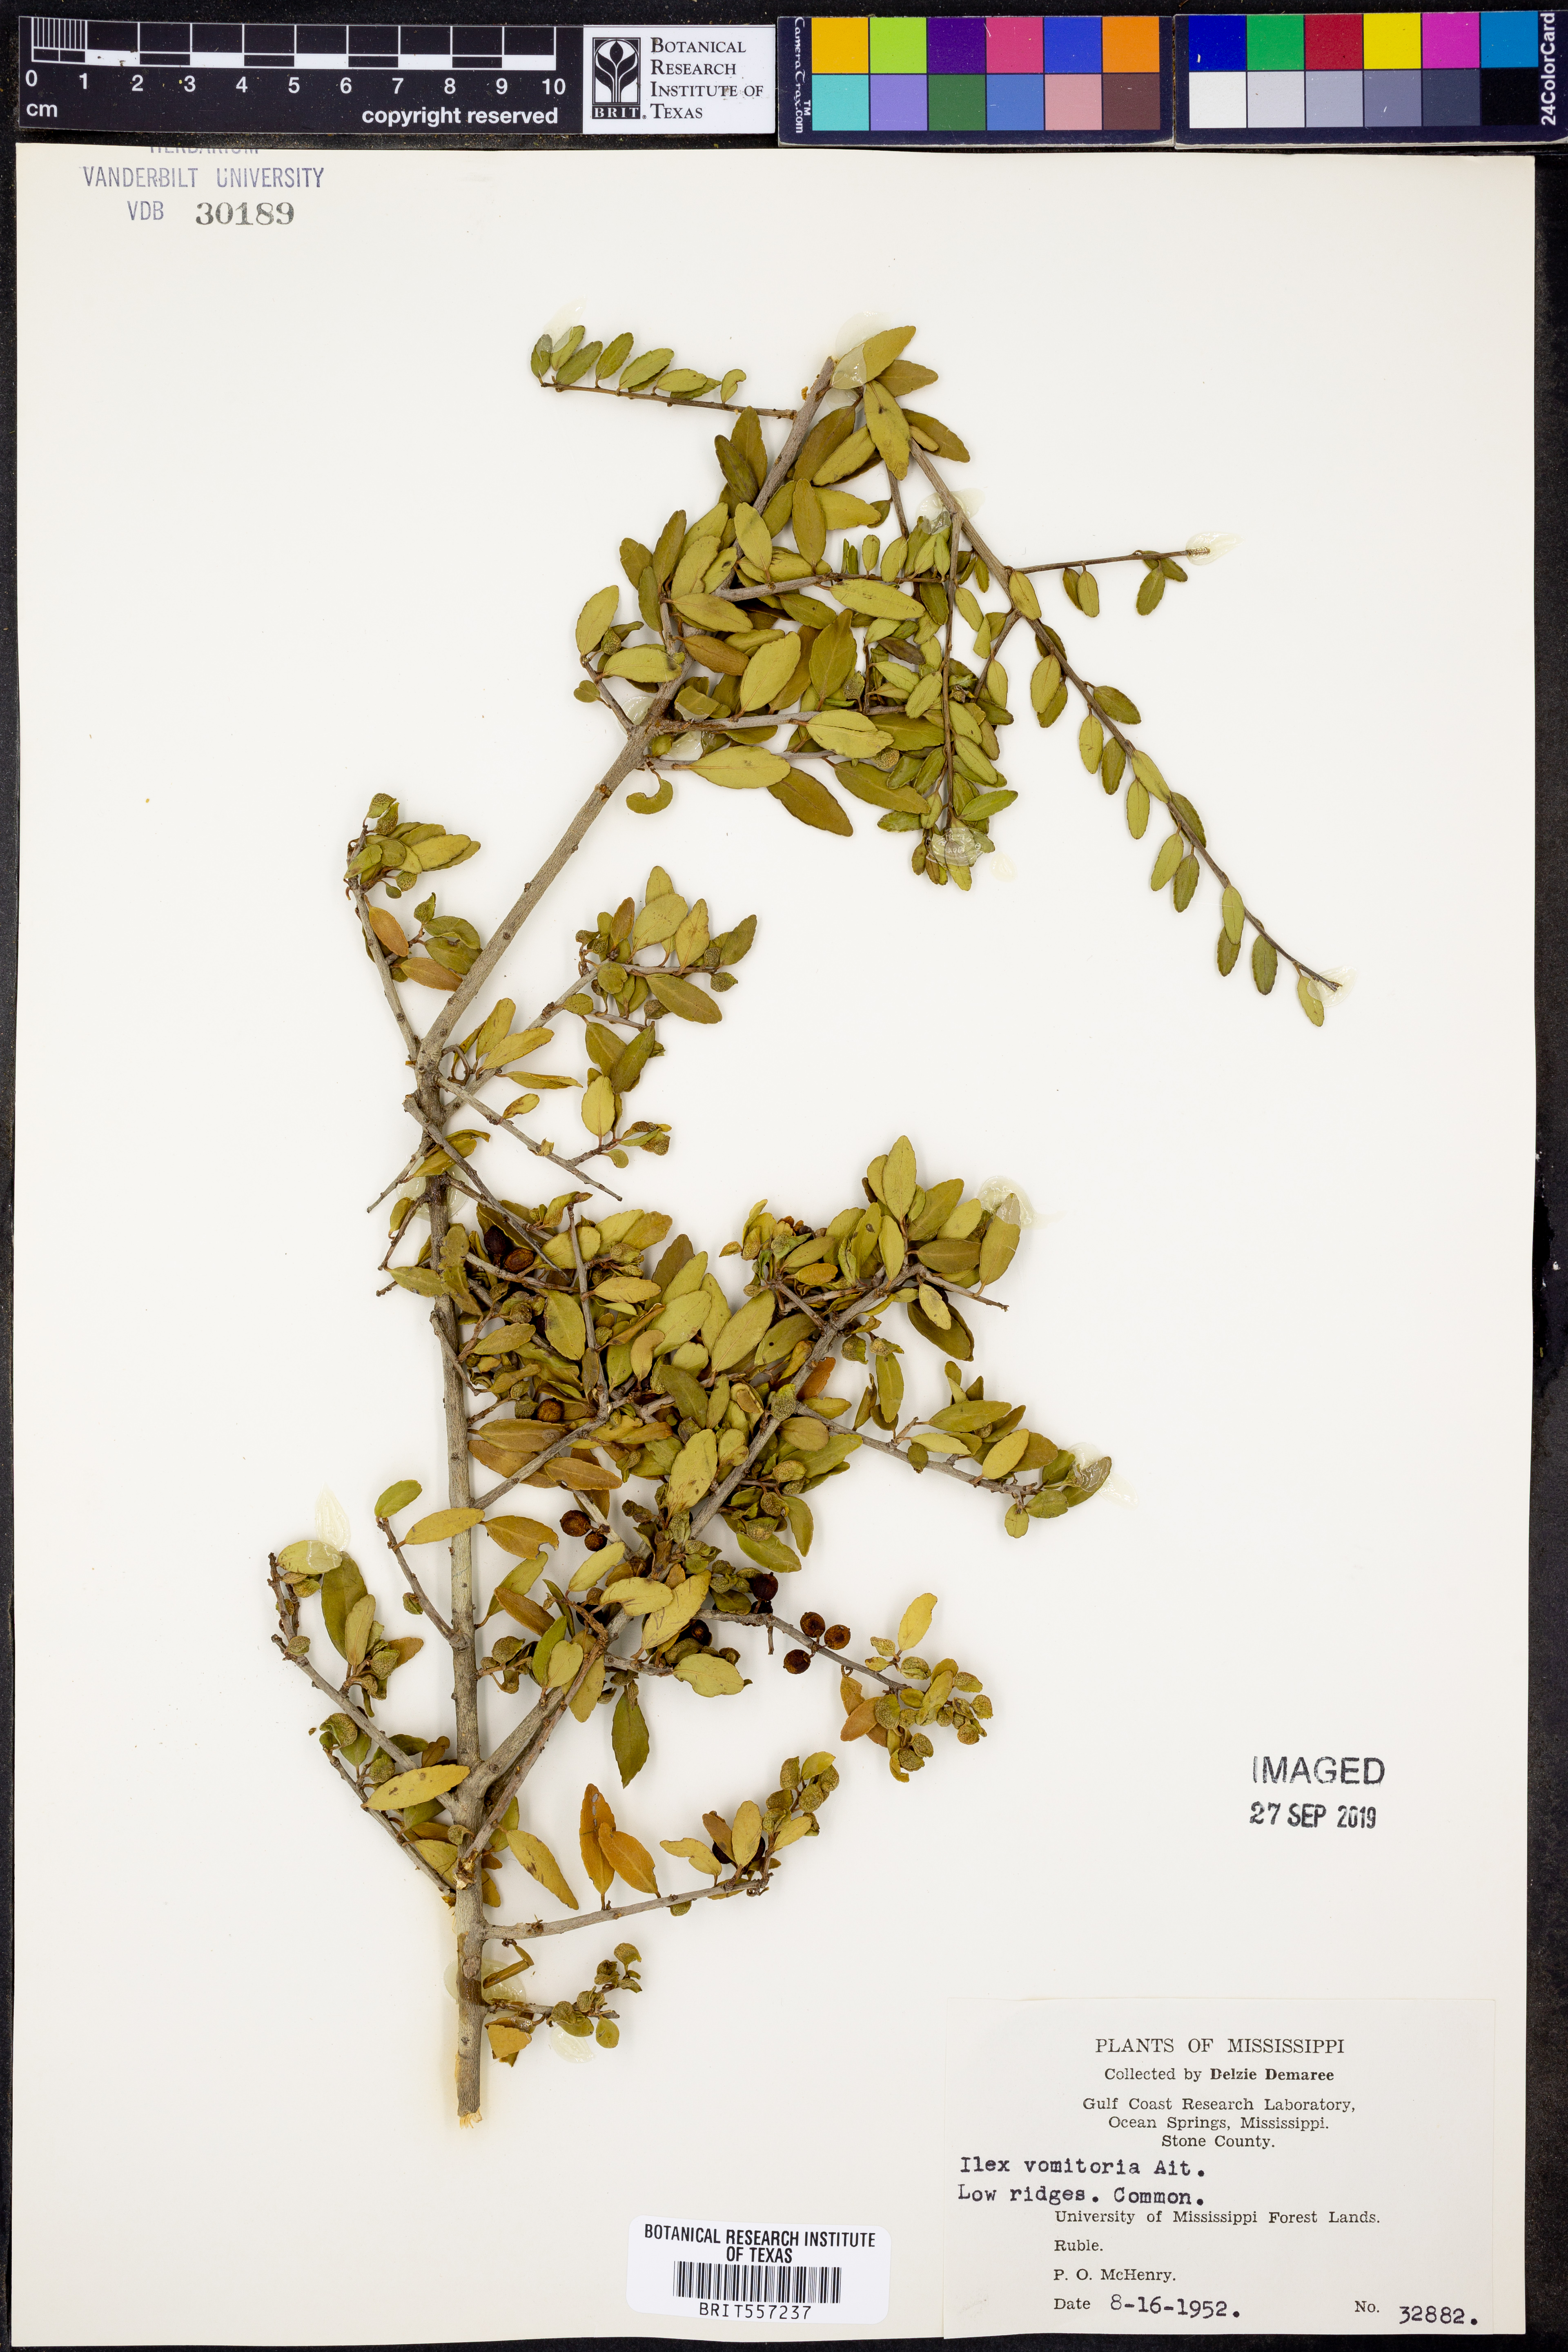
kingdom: Plantae
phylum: Tracheophyta
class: Magnoliopsida
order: Aquifoliales
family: Aquifoliaceae
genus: Ilex
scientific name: Ilex vomitoria
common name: Yaupon holly
